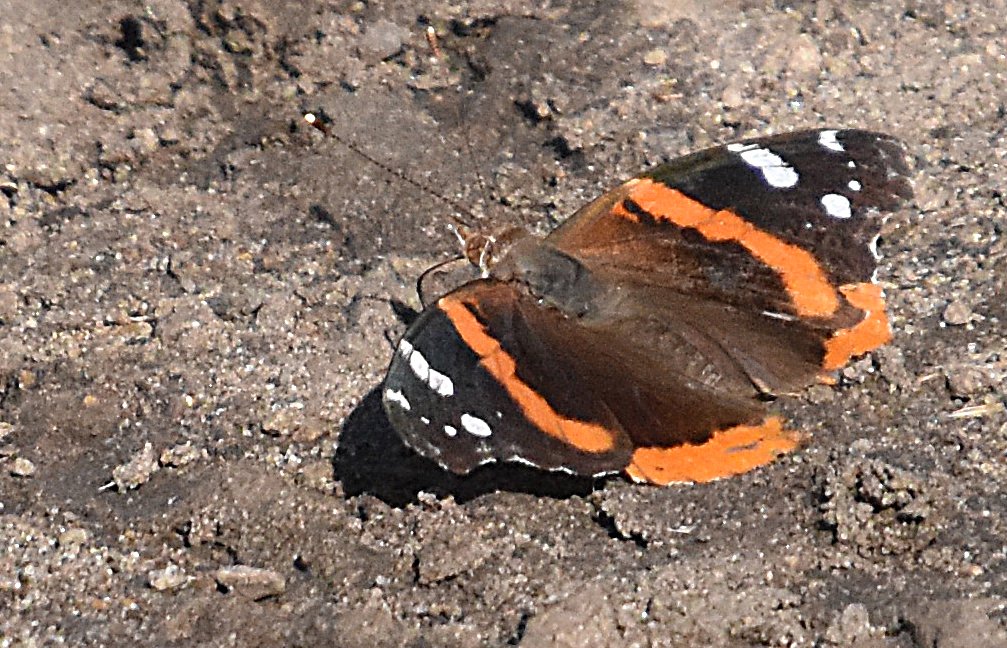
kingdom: Animalia
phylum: Arthropoda
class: Insecta
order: Lepidoptera
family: Nymphalidae
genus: Vanessa
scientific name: Vanessa atalanta
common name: Red Admiral
